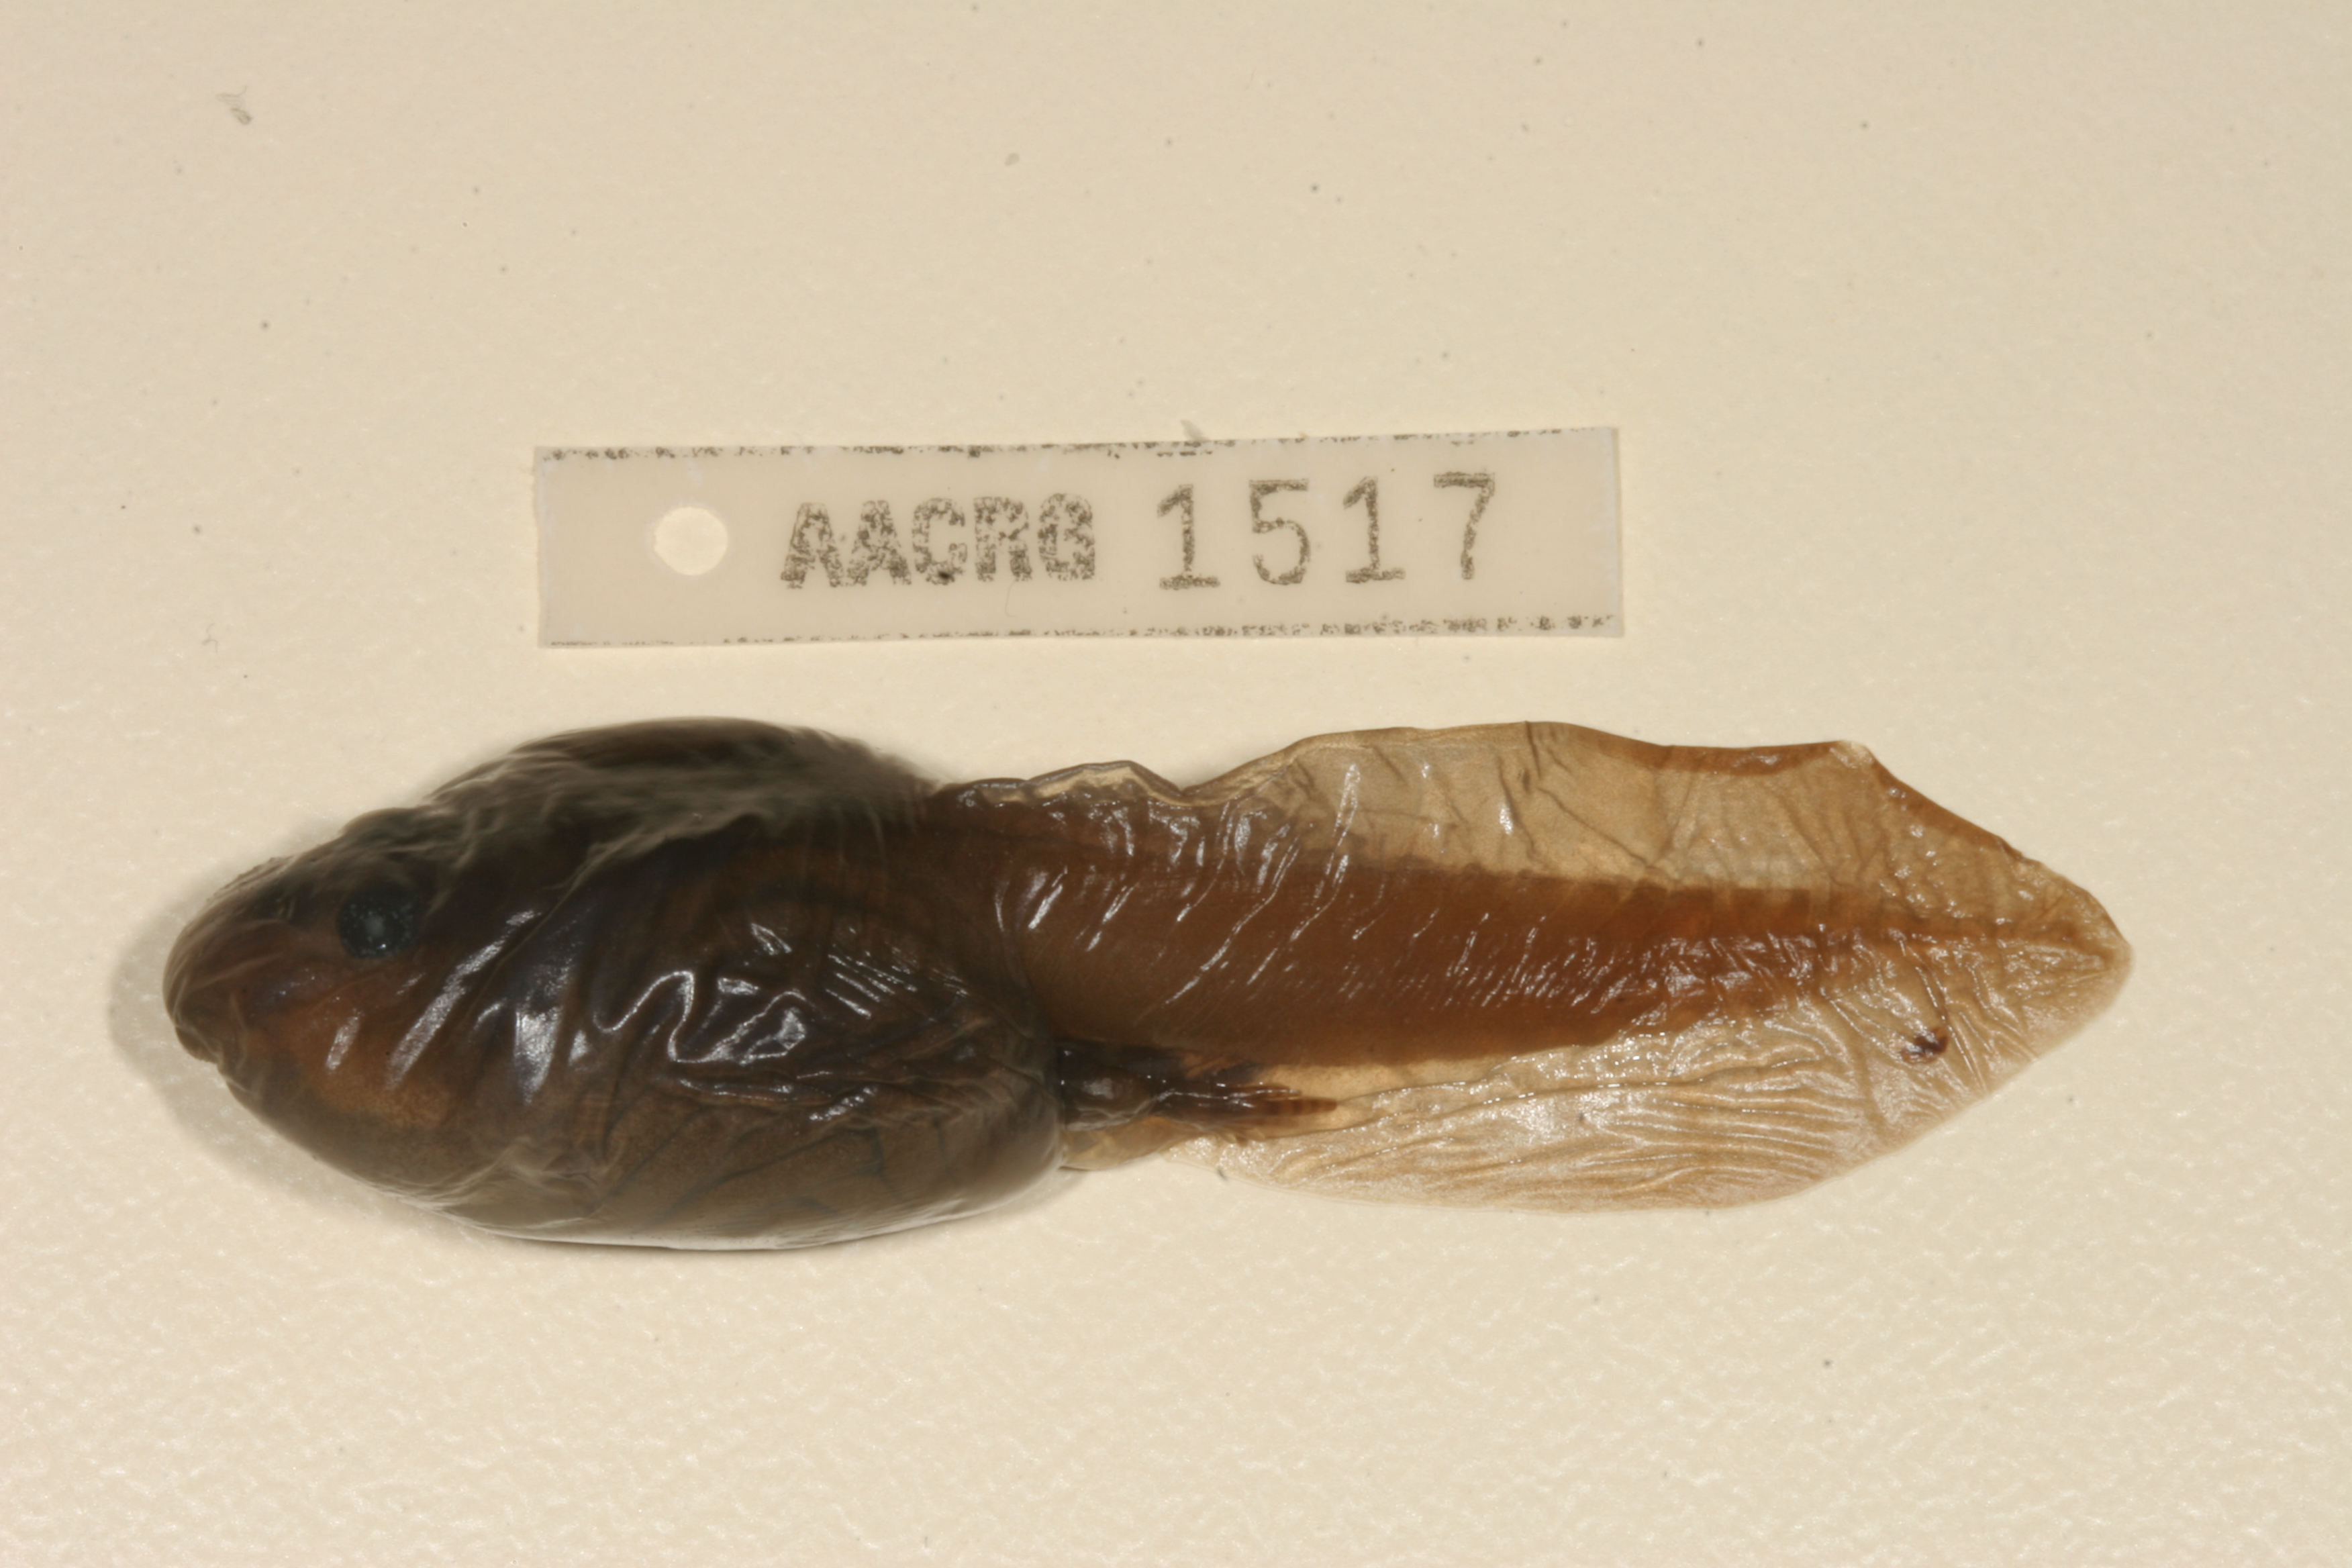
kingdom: Animalia
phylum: Chordata
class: Amphibia
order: Anura
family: Pyxicephalidae
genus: Pyxicephalus
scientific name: Pyxicephalus edulis
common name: Peter's bullfrog
